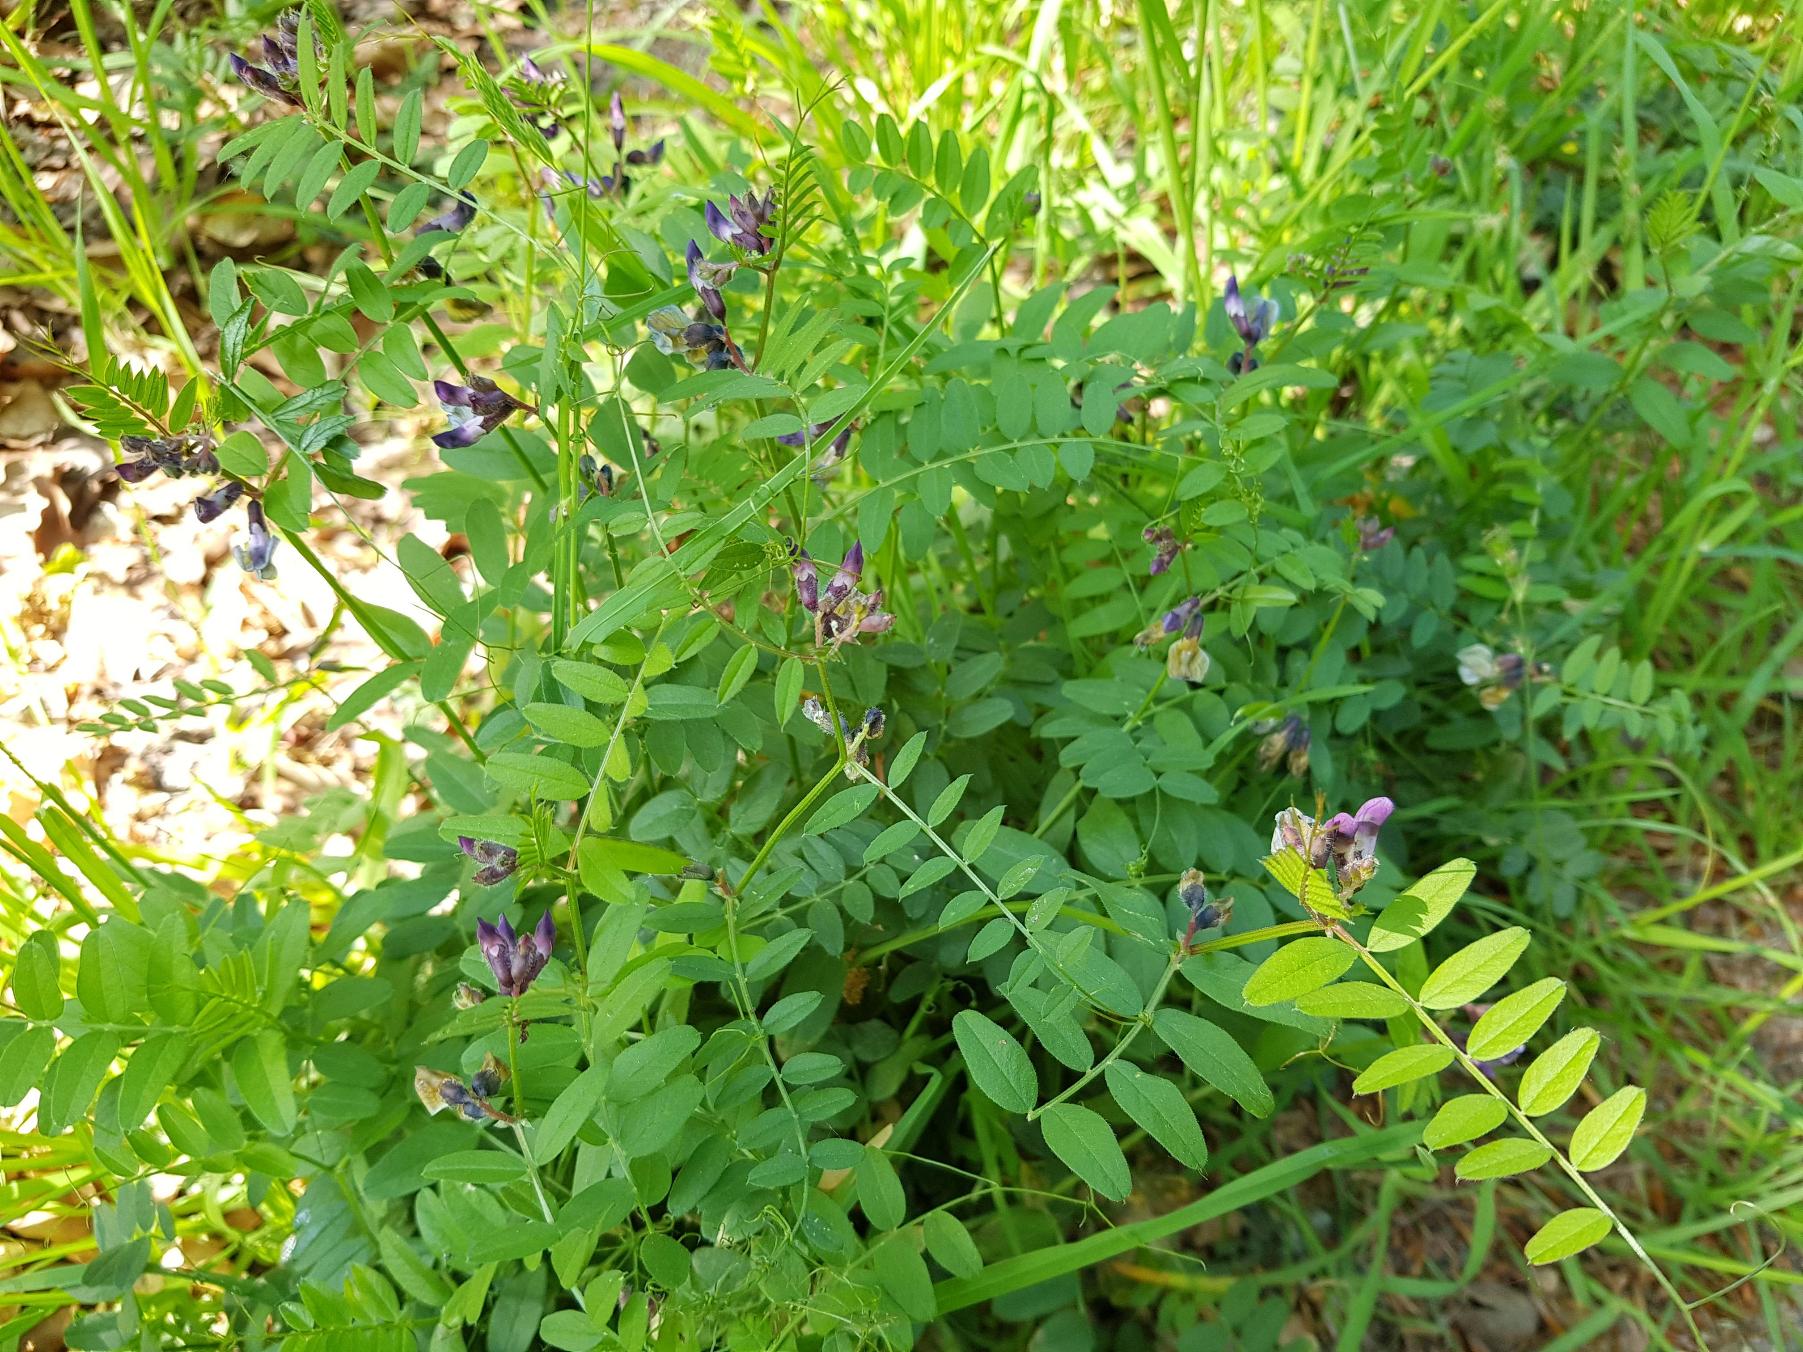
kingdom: Plantae
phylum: Tracheophyta
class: Magnoliopsida
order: Fabales
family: Fabaceae
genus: Vicia
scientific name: Vicia sepium
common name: Gærde-vikke
